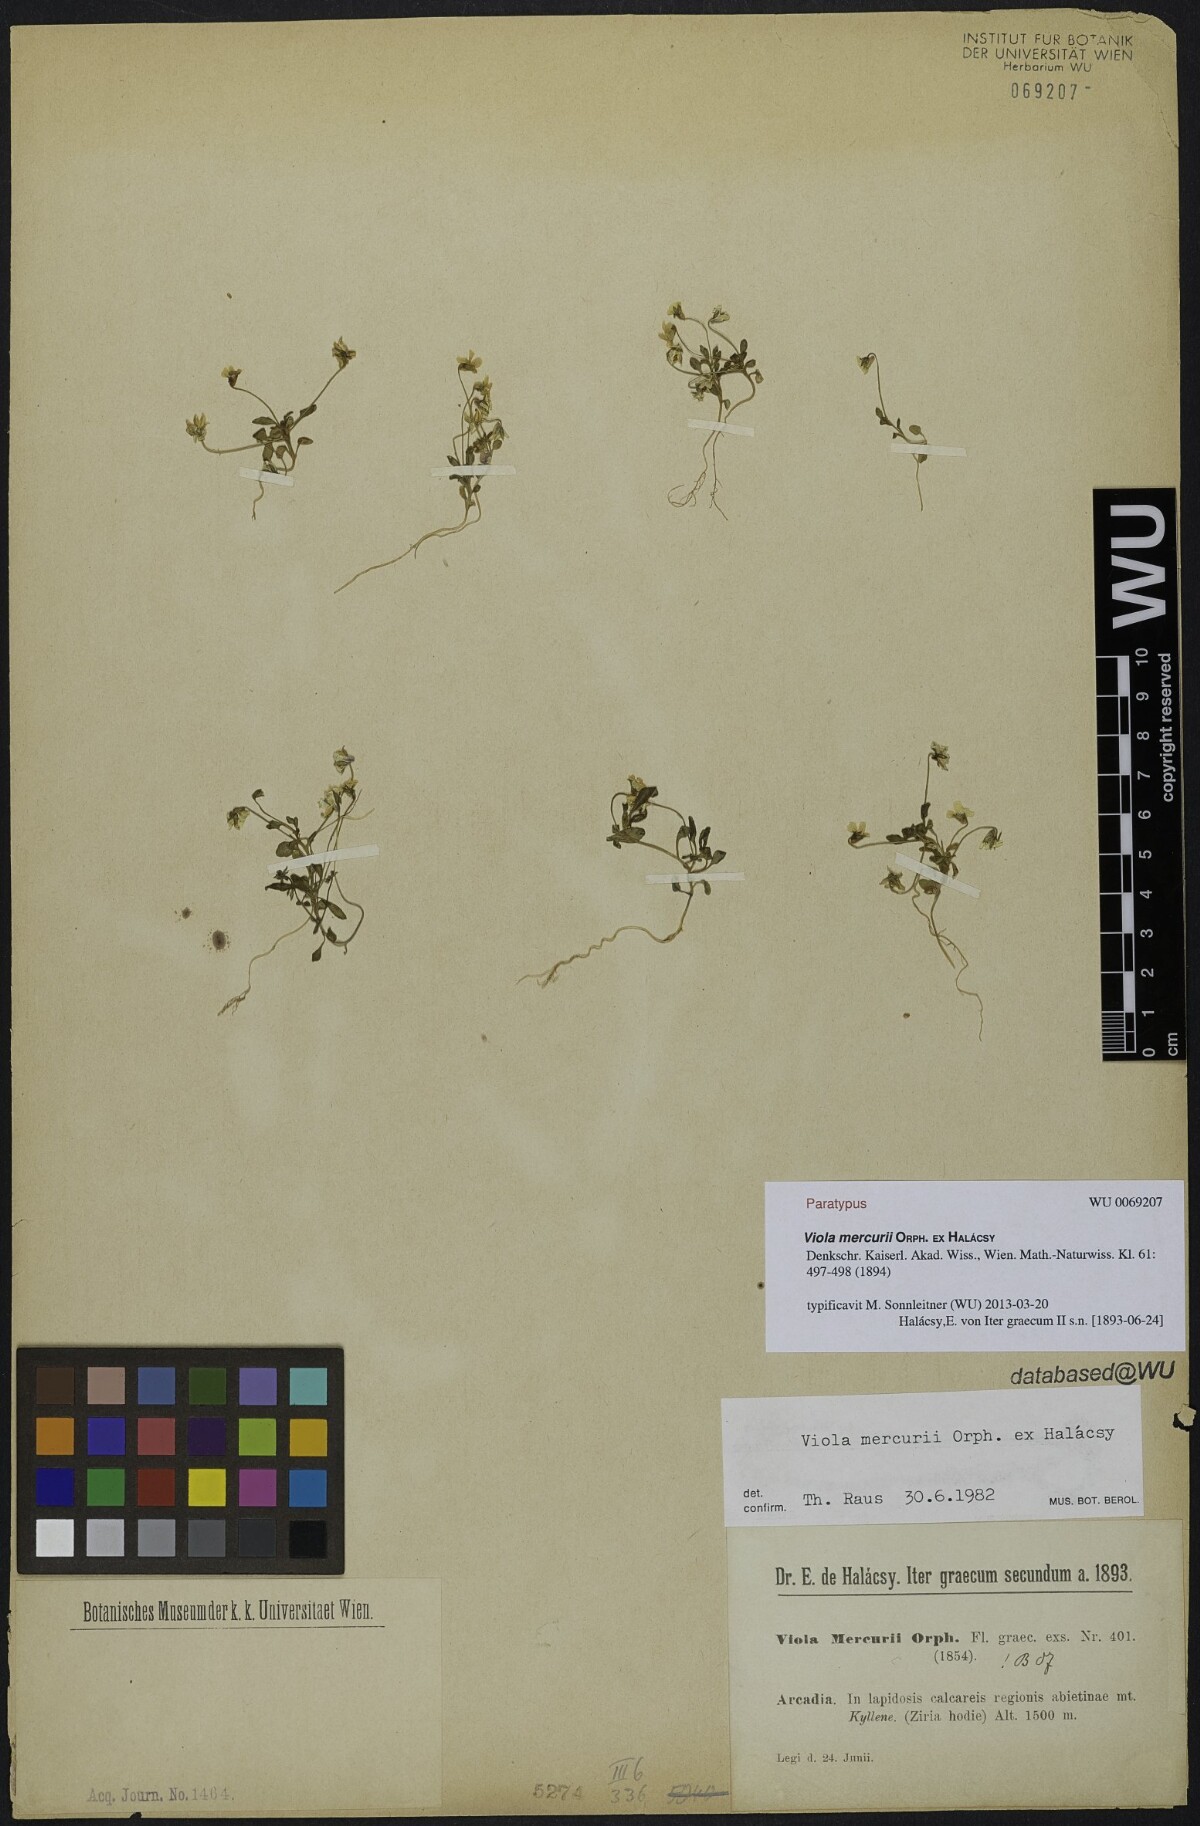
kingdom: Plantae
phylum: Tracheophyta
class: Magnoliopsida
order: Malpighiales
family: Violaceae
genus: Viola
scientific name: Viola mercurii
